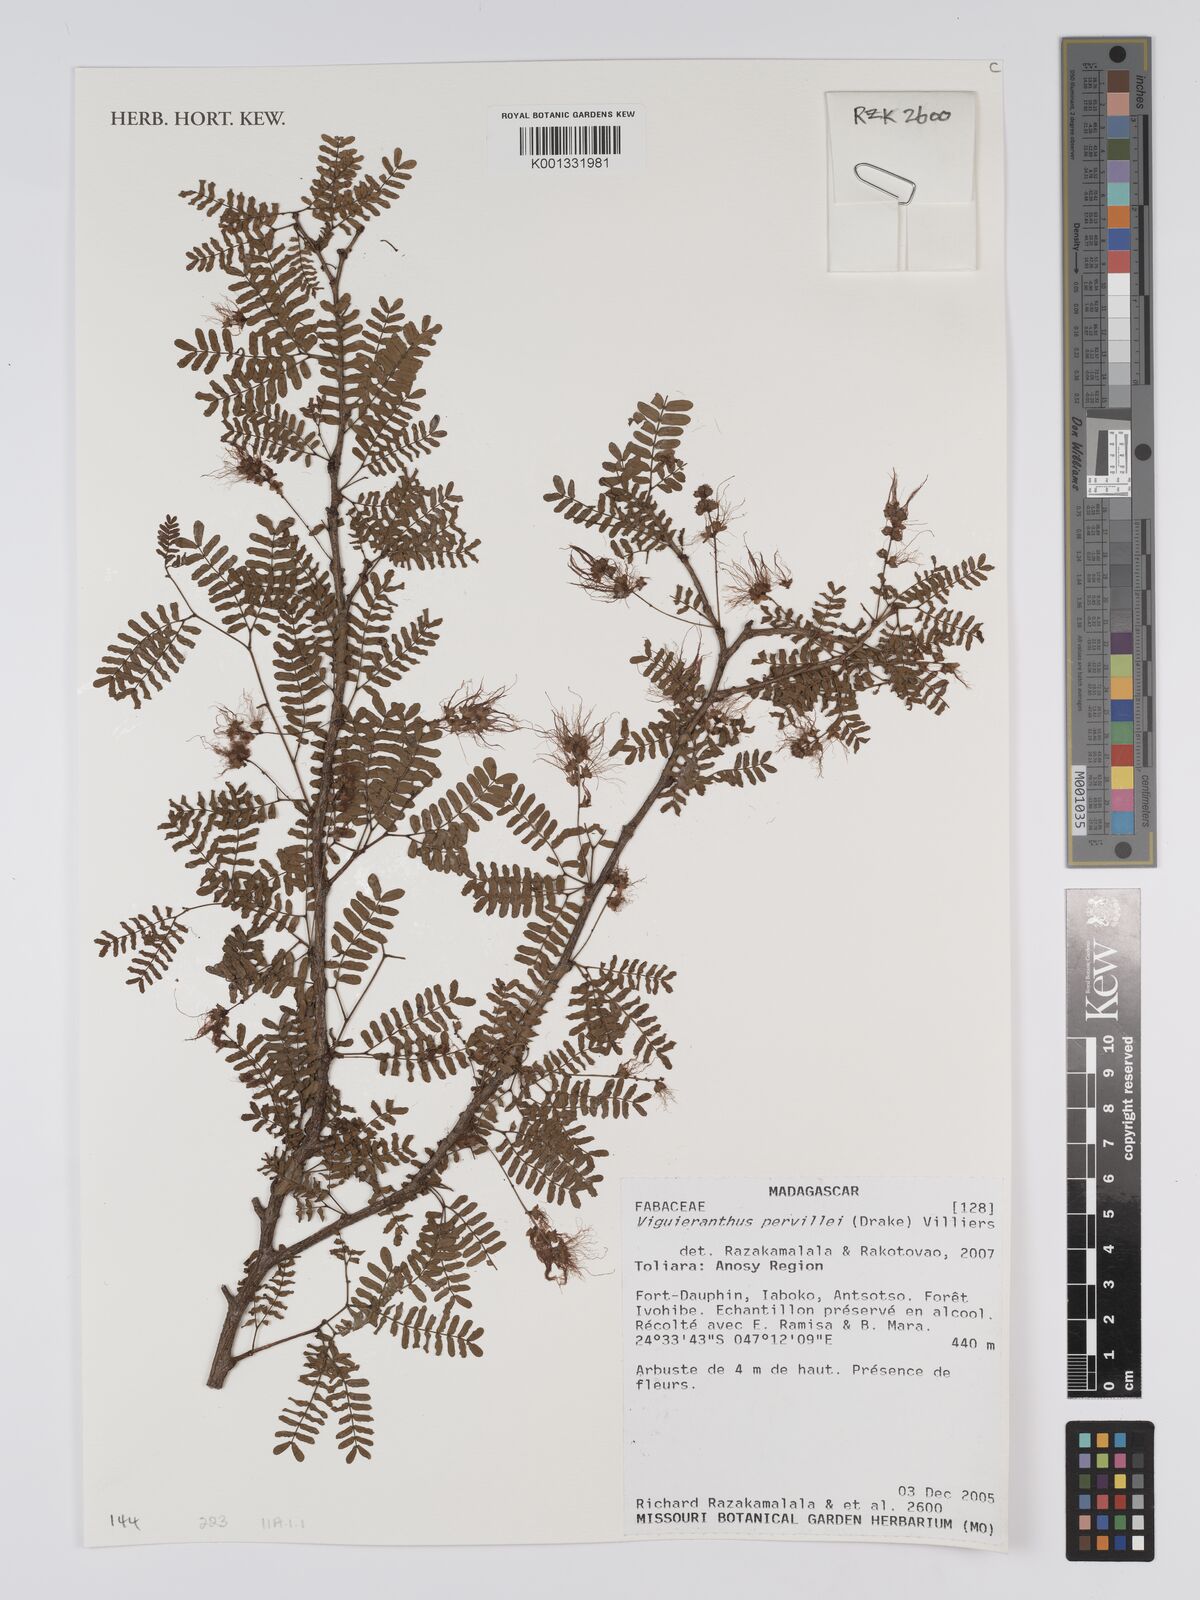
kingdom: Plantae
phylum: Tracheophyta
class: Magnoliopsida
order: Fabales
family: Fabaceae
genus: Viguieranthus
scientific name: Viguieranthus pervillei
